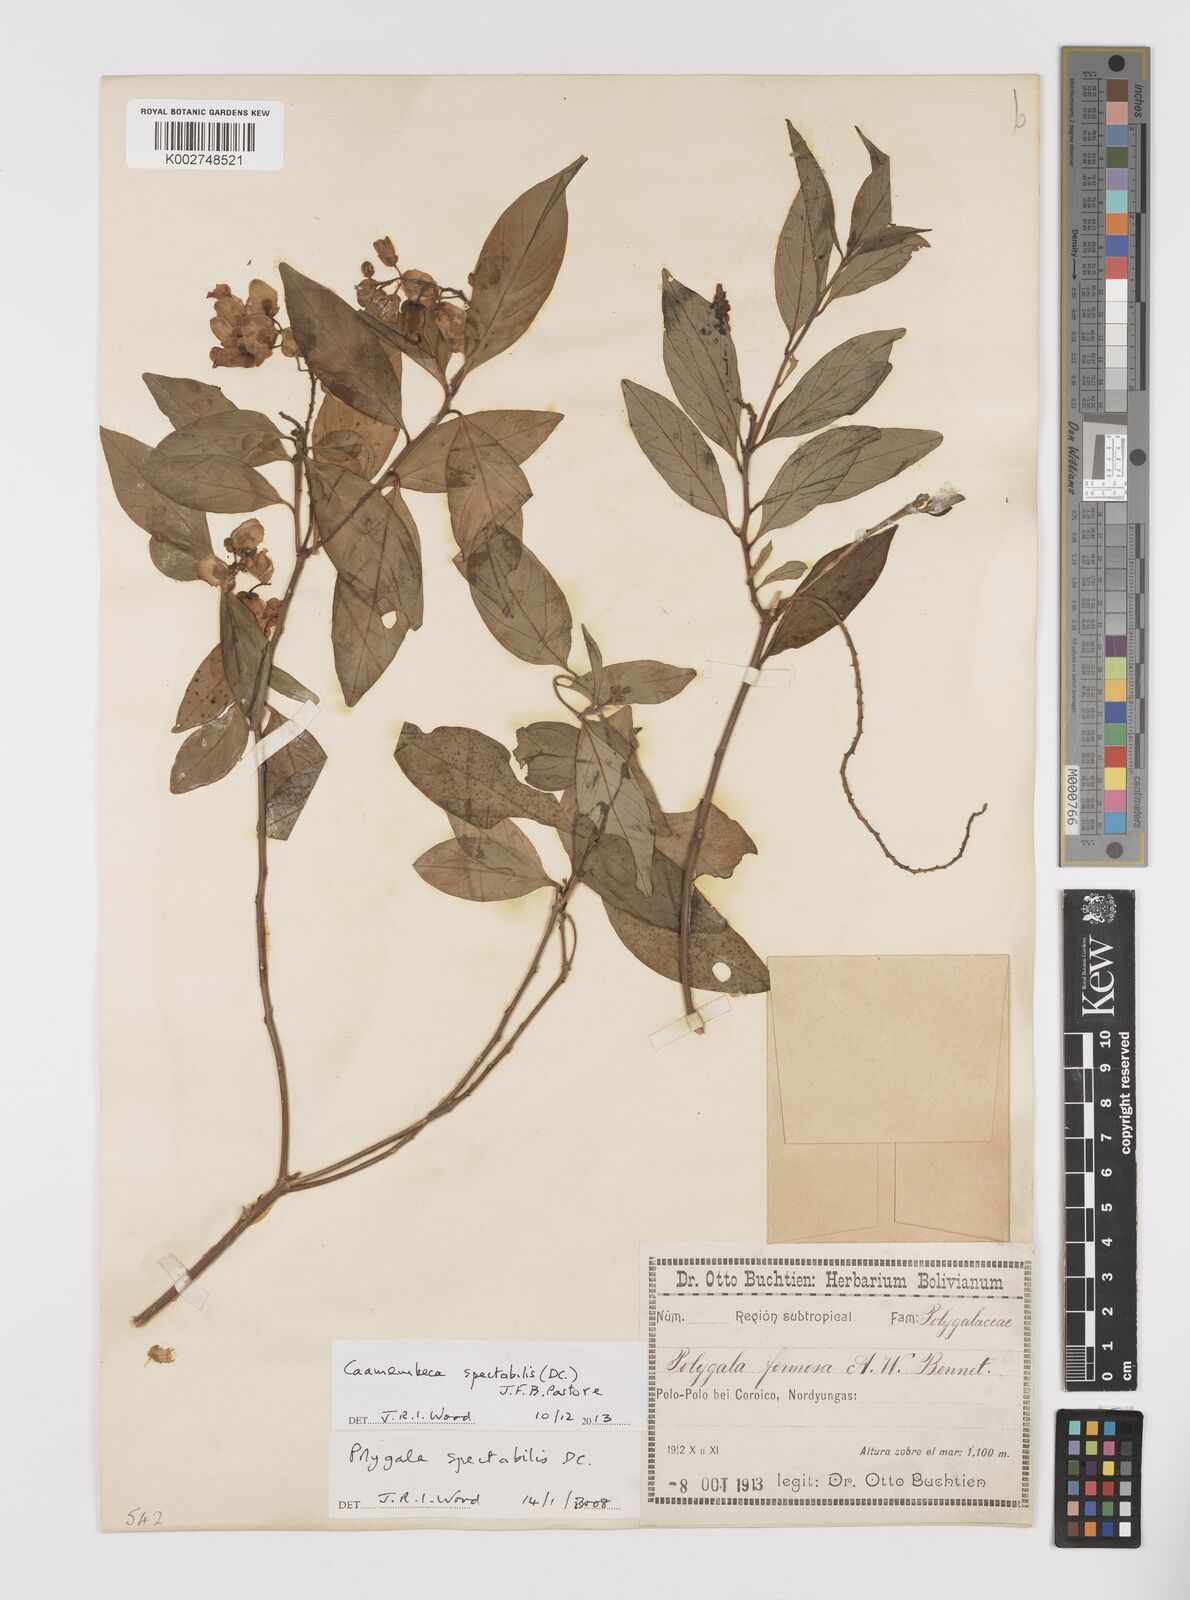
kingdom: Plantae
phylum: Tracheophyta
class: Magnoliopsida
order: Fabales
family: Polygalaceae
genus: Caamembeca
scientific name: Caamembeca spectabilis
